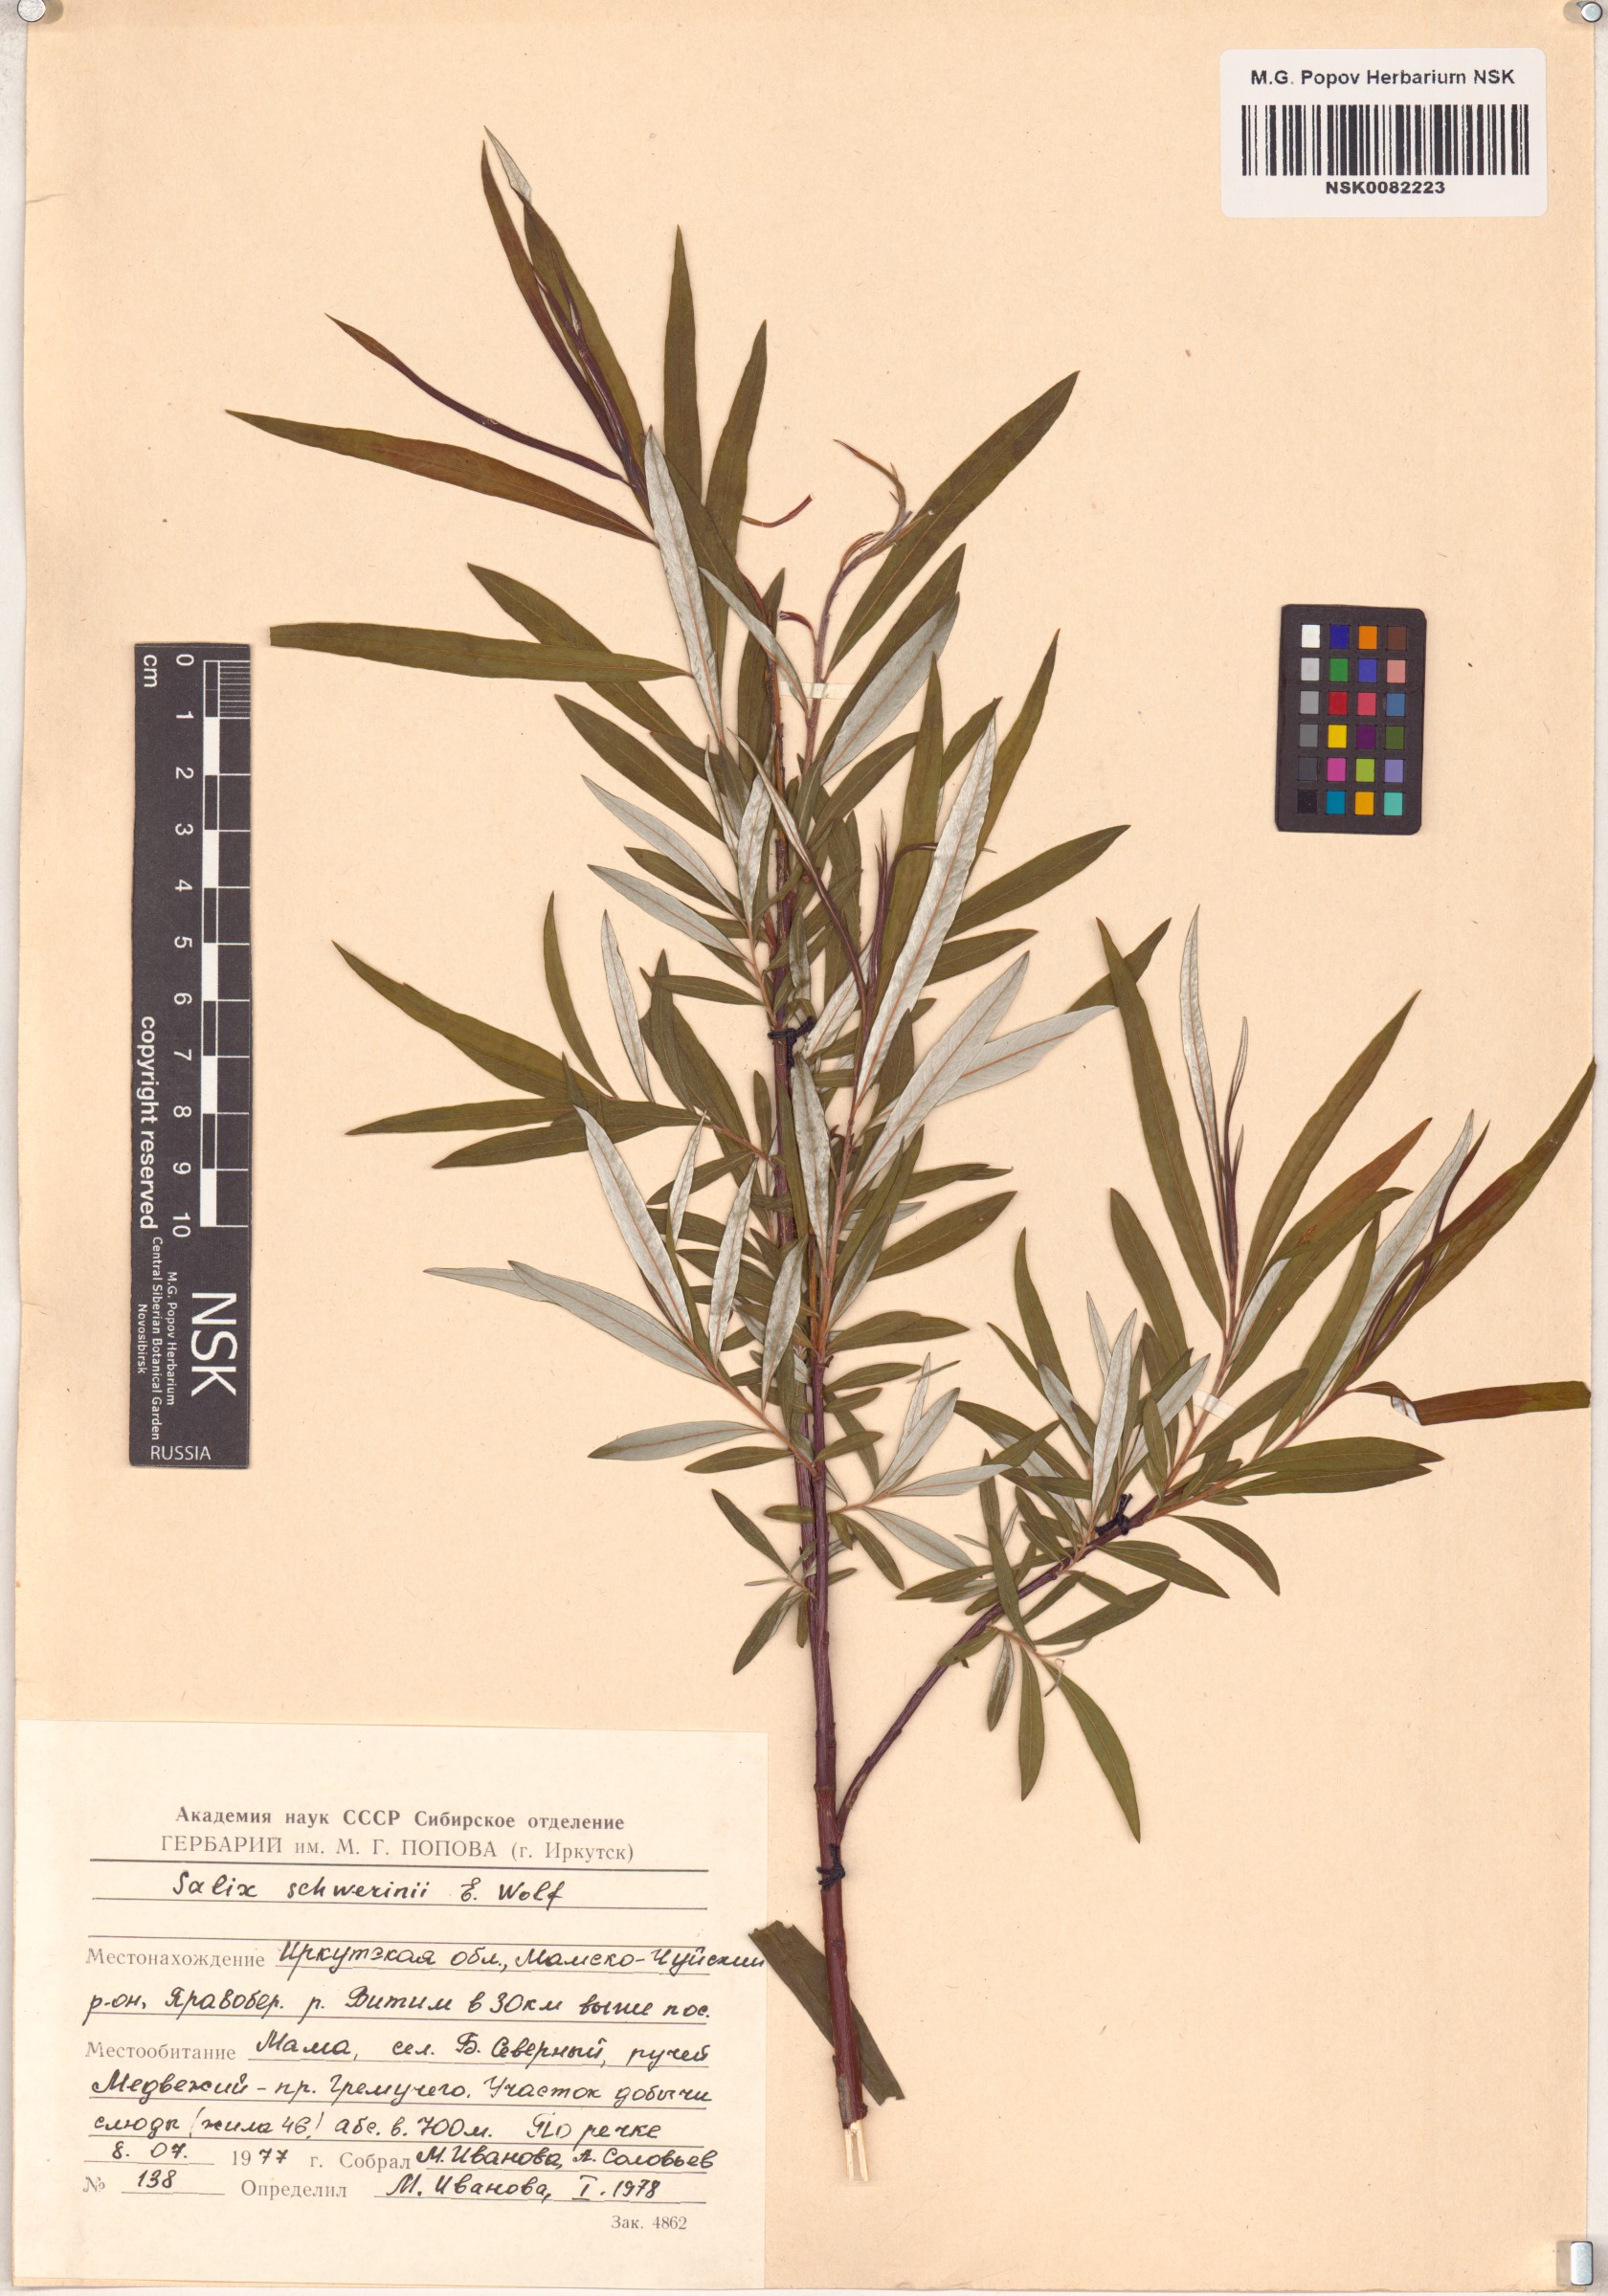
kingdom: Plantae
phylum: Tracheophyta
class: Magnoliopsida
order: Malpighiales
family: Salicaceae
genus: Salix
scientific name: Salix schwerinii
